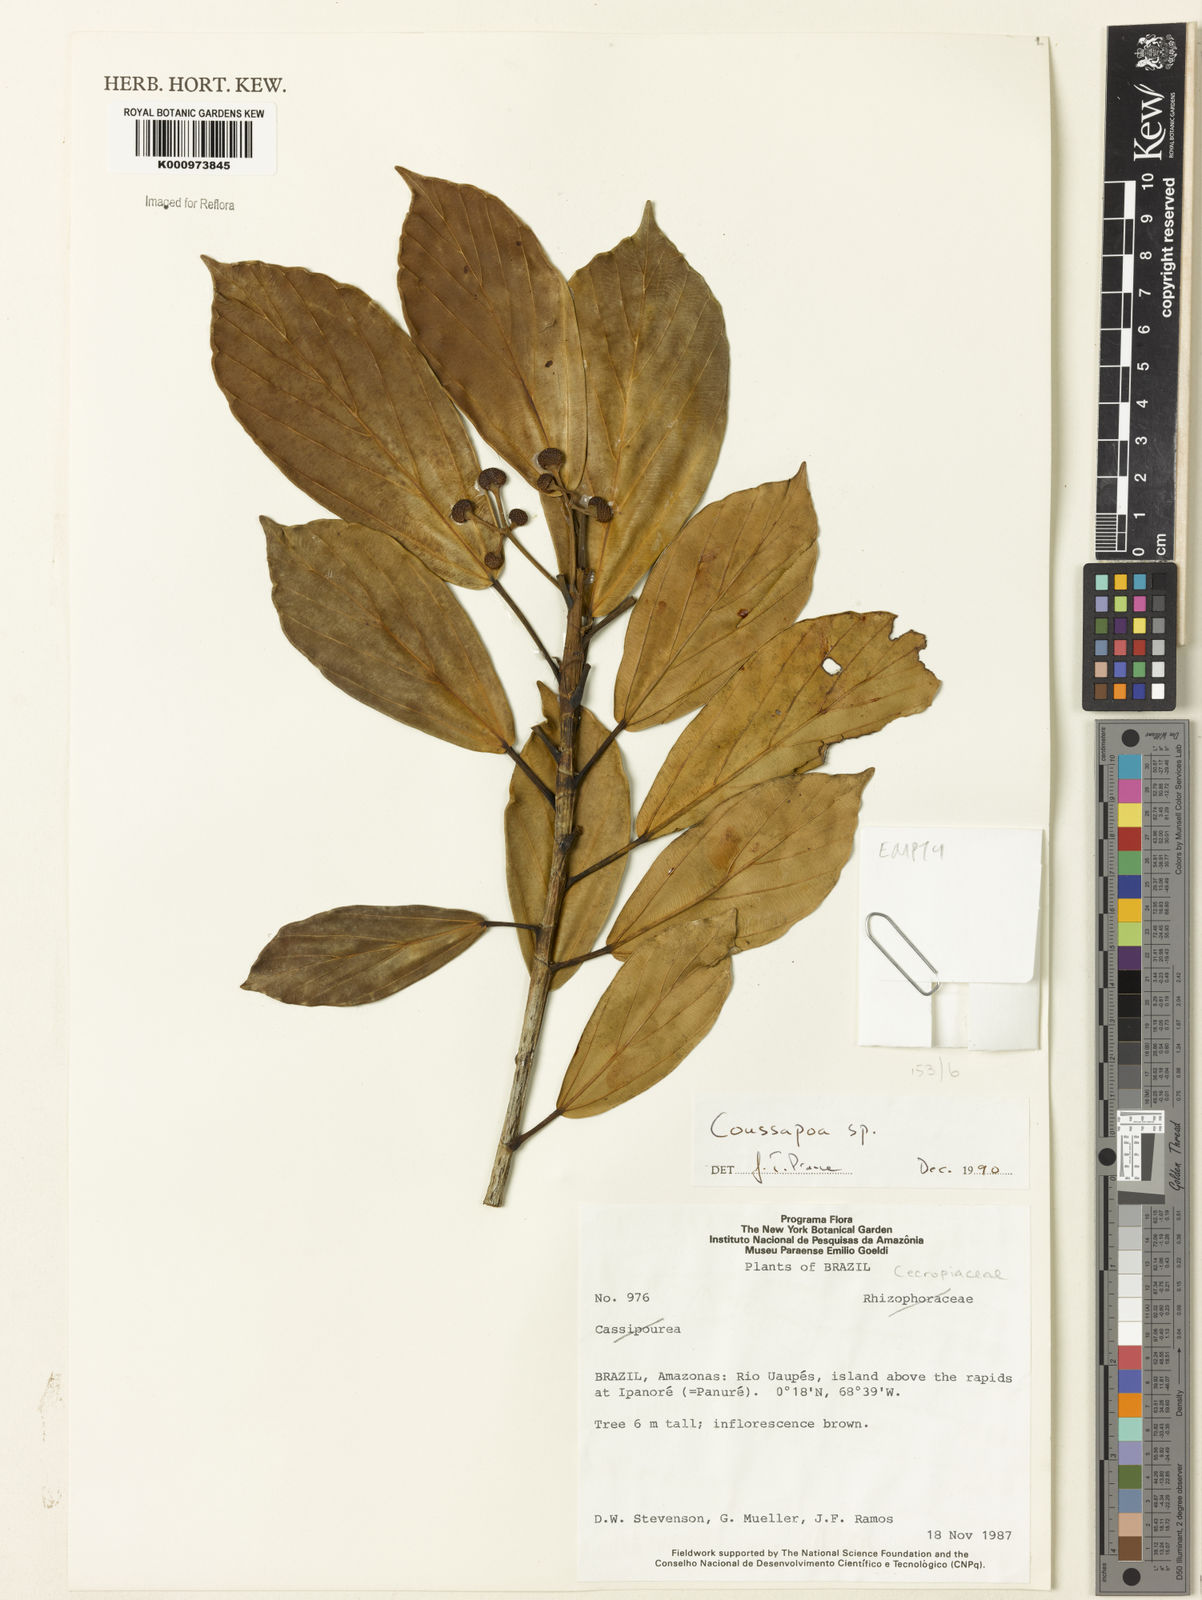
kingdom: Plantae
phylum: Tracheophyta
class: Magnoliopsida
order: Rosales
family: Urticaceae
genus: Coussapoa
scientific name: Coussapoa
